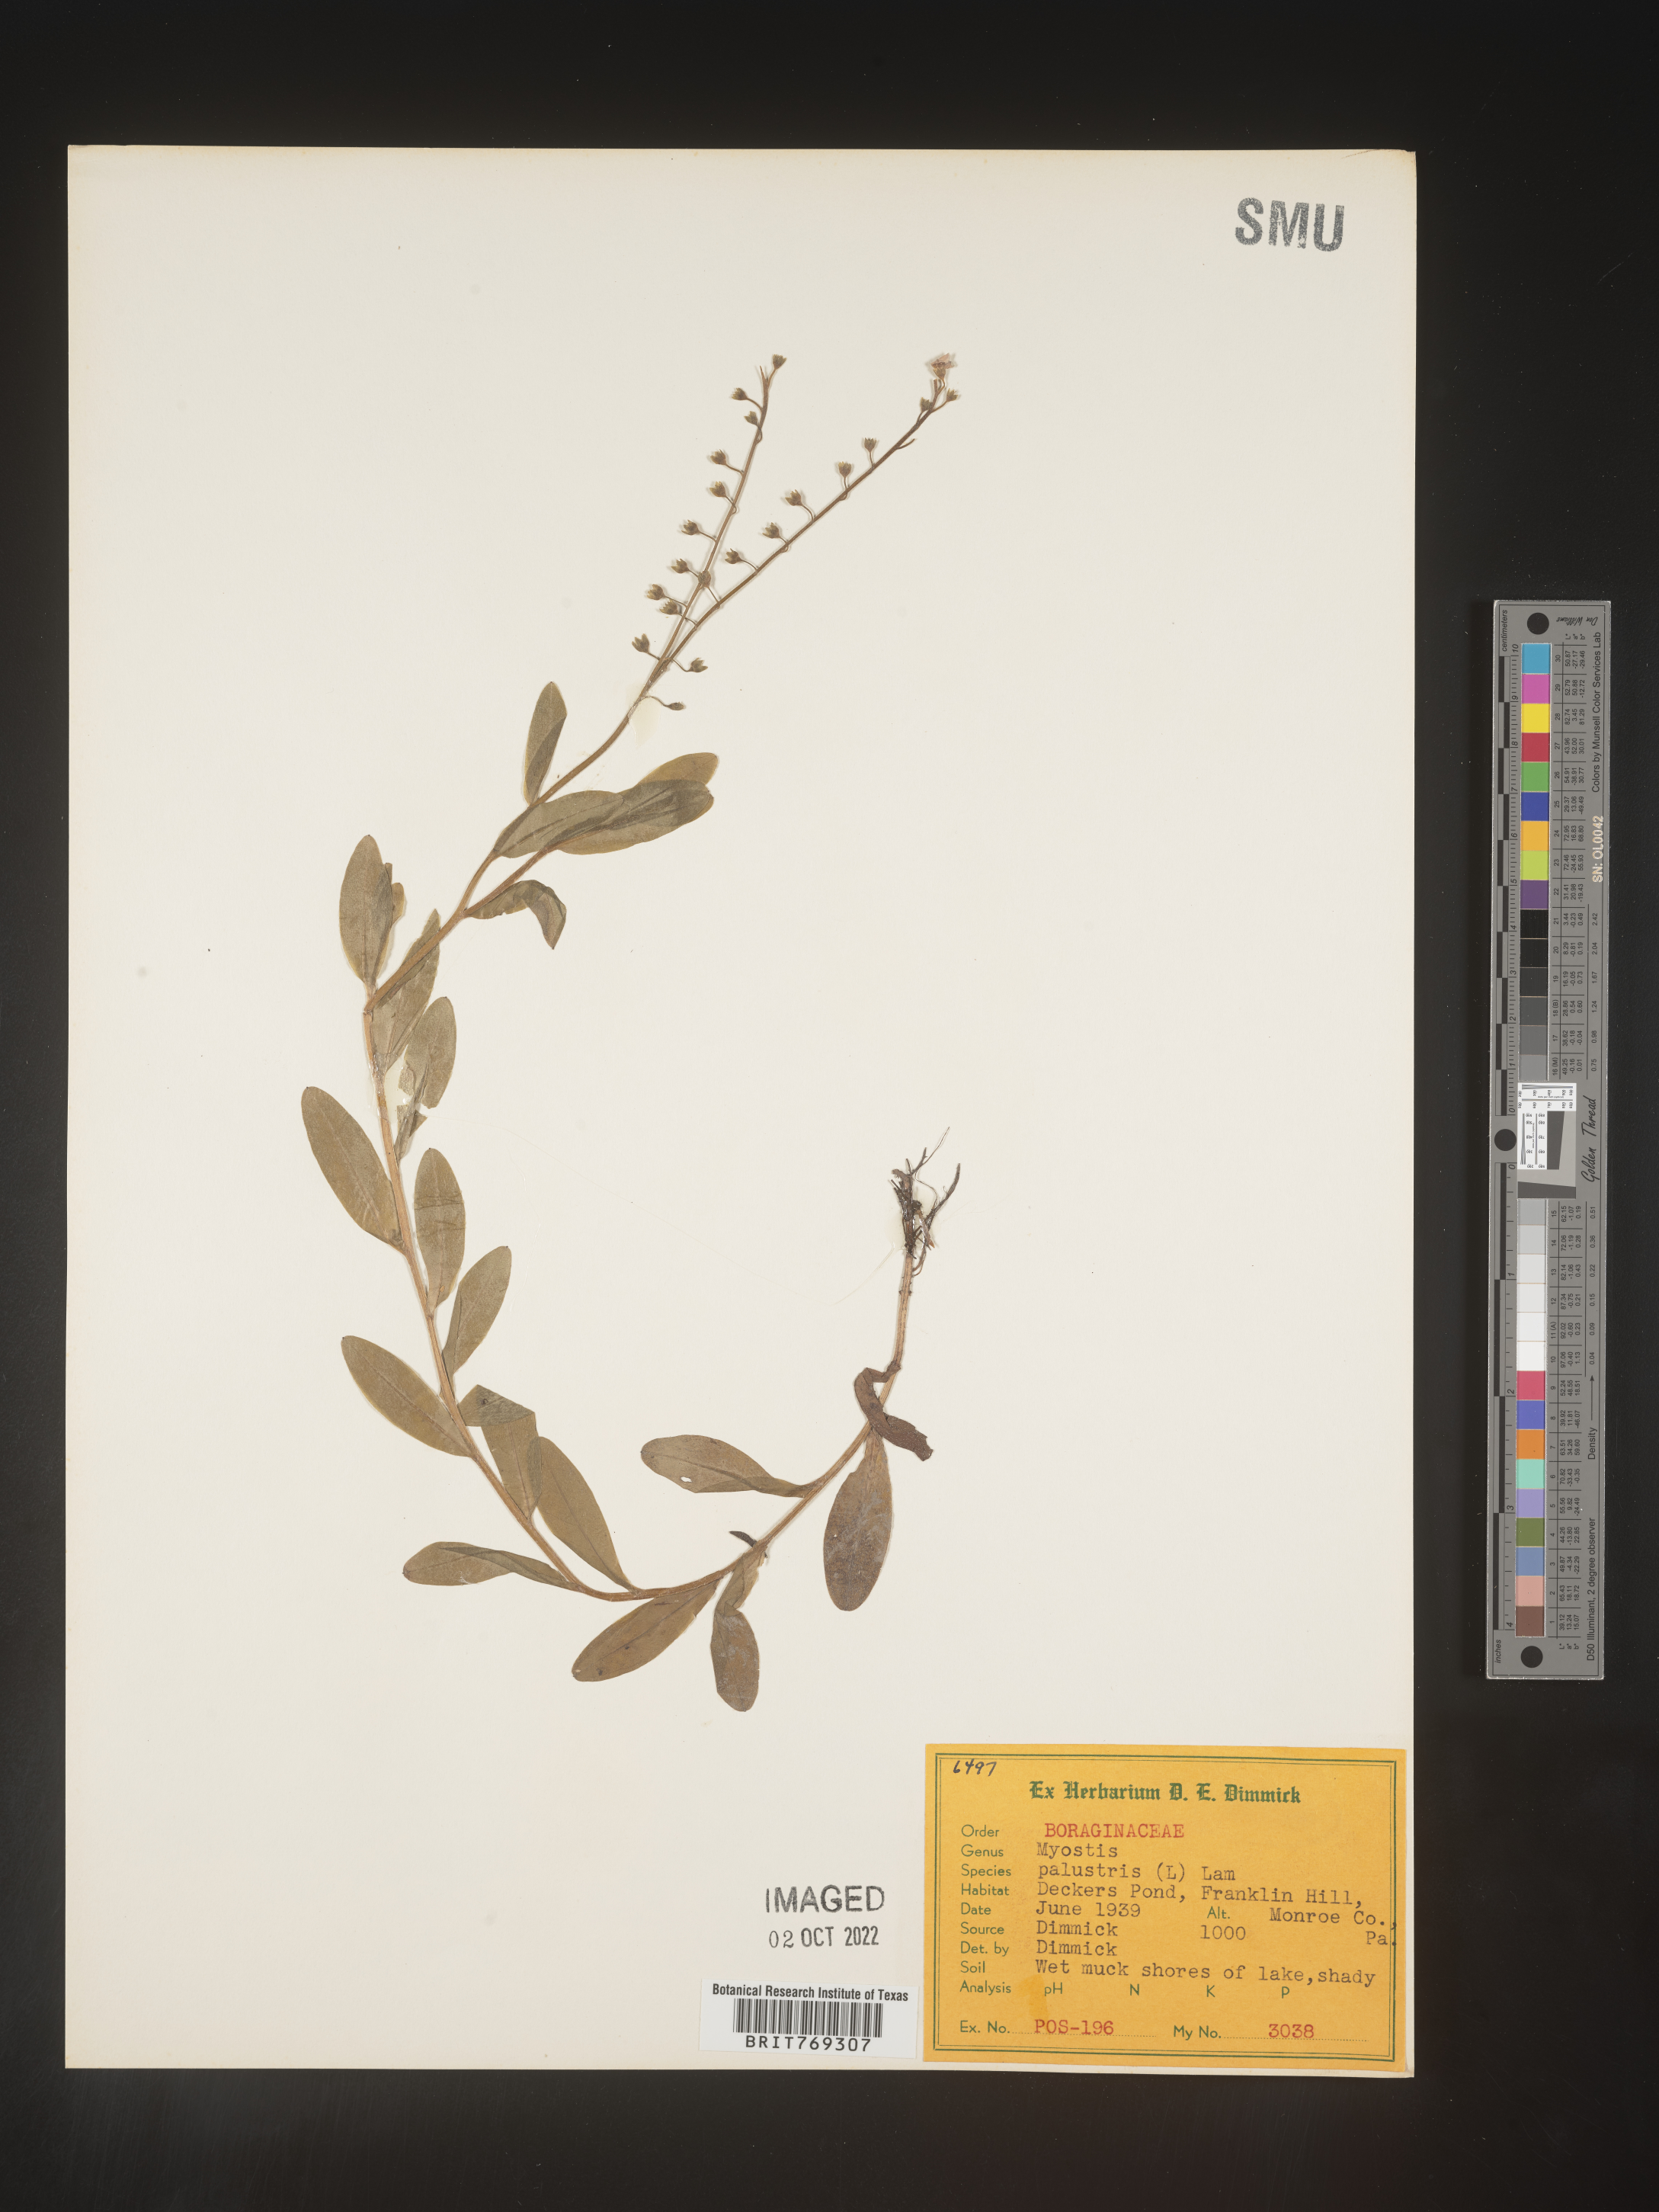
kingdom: Plantae
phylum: Tracheophyta
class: Magnoliopsida
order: Boraginales
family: Boraginaceae
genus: Myosotis
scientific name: Myosotis
